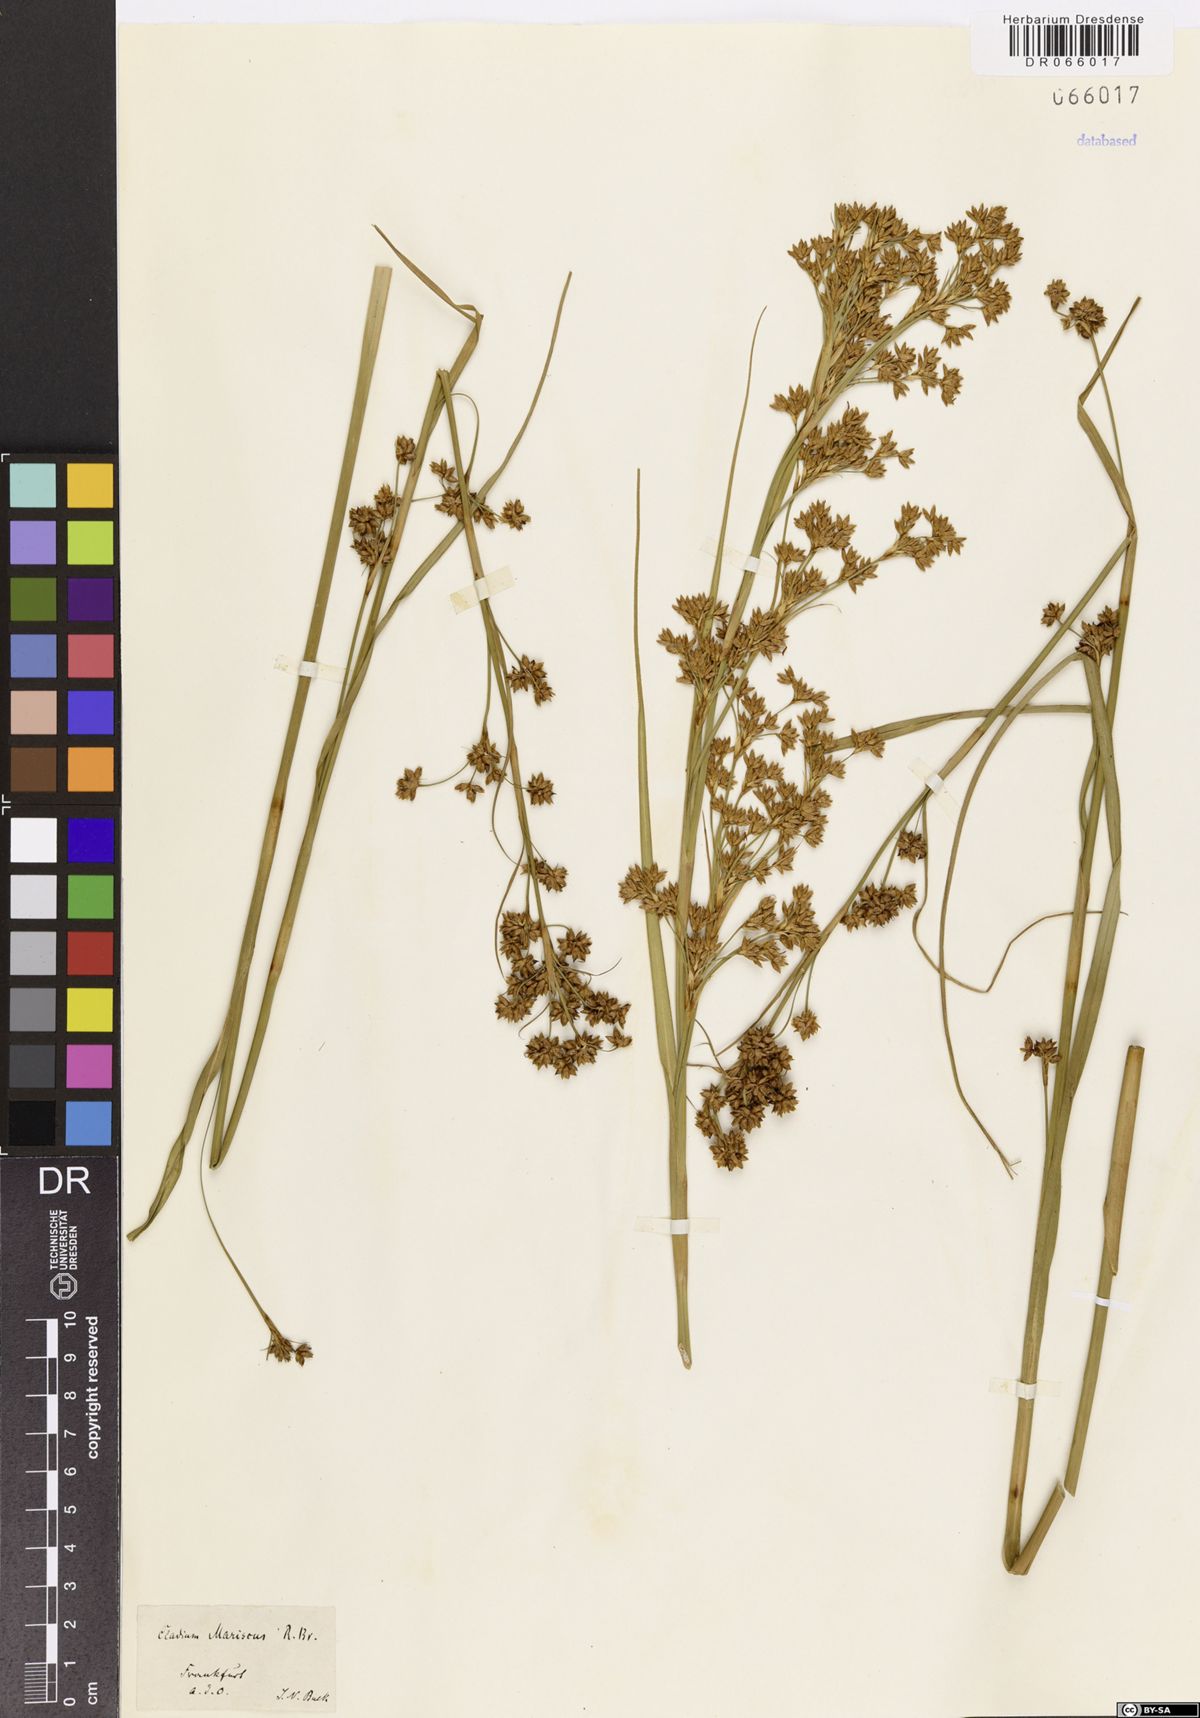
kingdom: Plantae
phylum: Tracheophyta
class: Liliopsida
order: Poales
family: Cyperaceae
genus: Cladium
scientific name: Cladium mariscus
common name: Great fen-sedge
